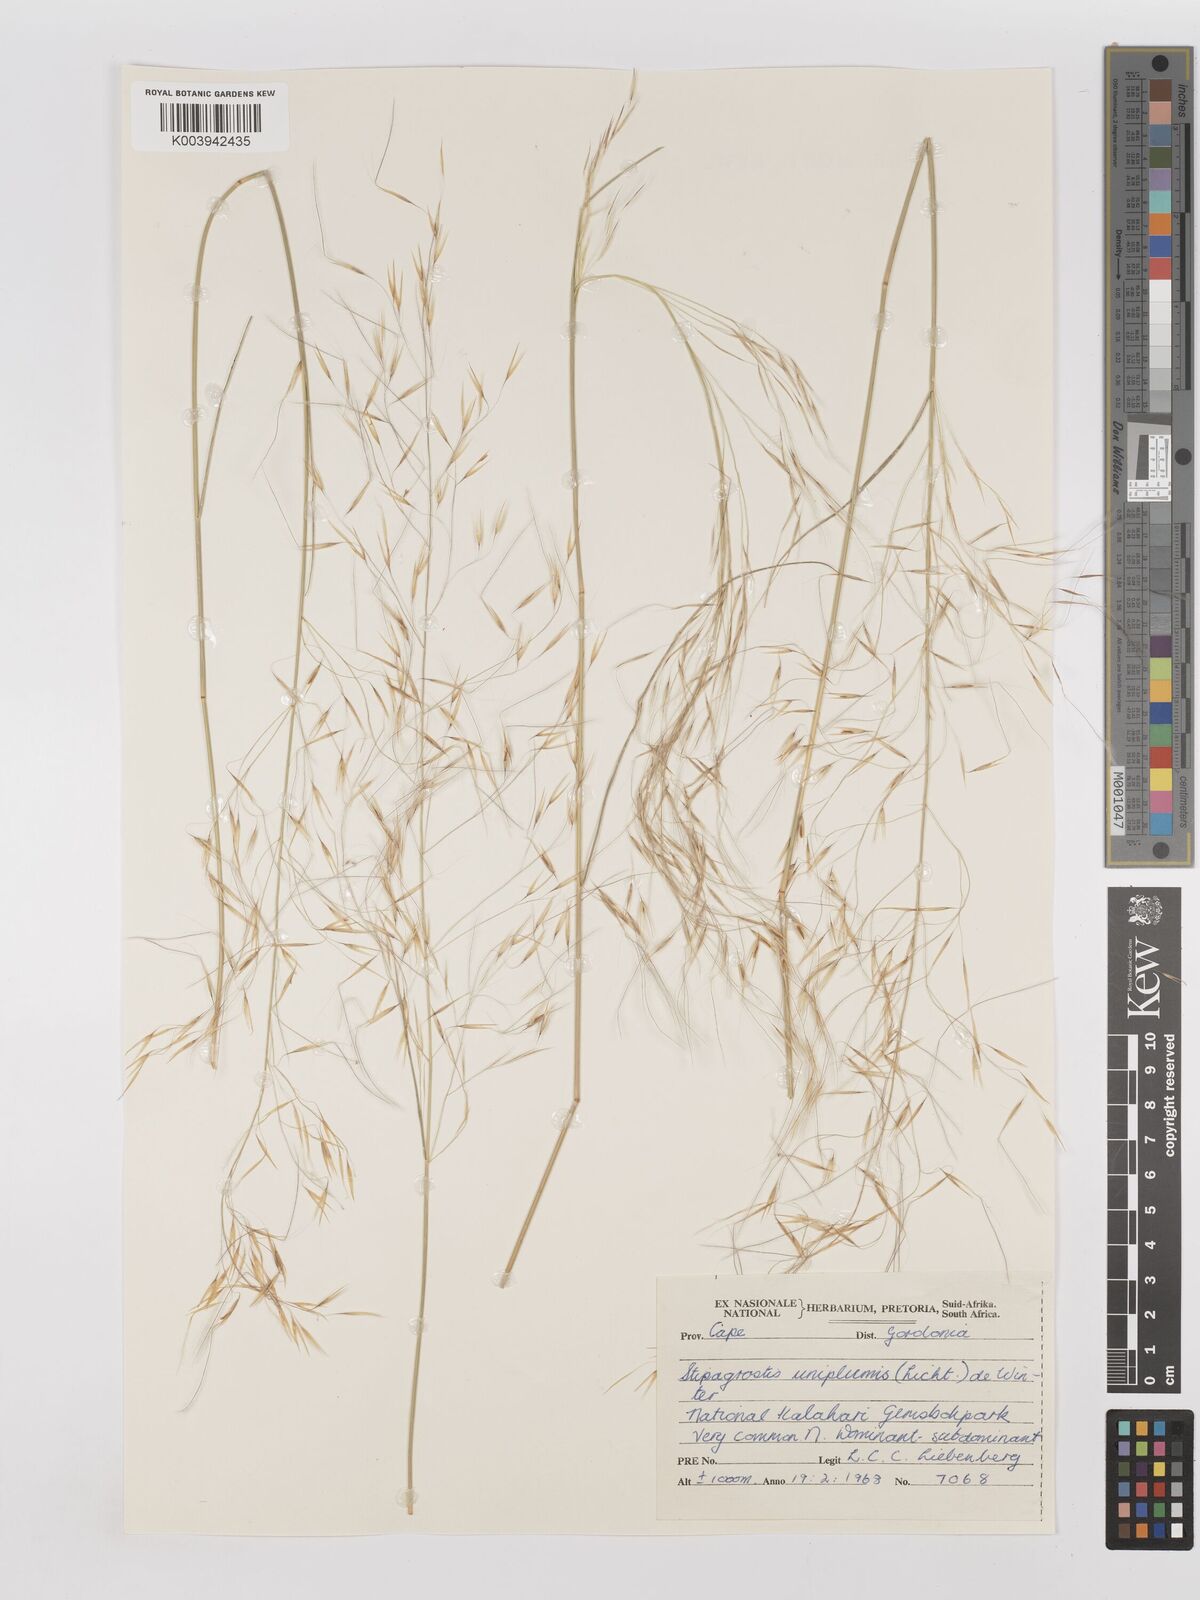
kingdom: Plantae
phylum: Tracheophyta
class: Liliopsida
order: Poales
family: Poaceae
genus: Stipagrostis
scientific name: Stipagrostis uniplumis
